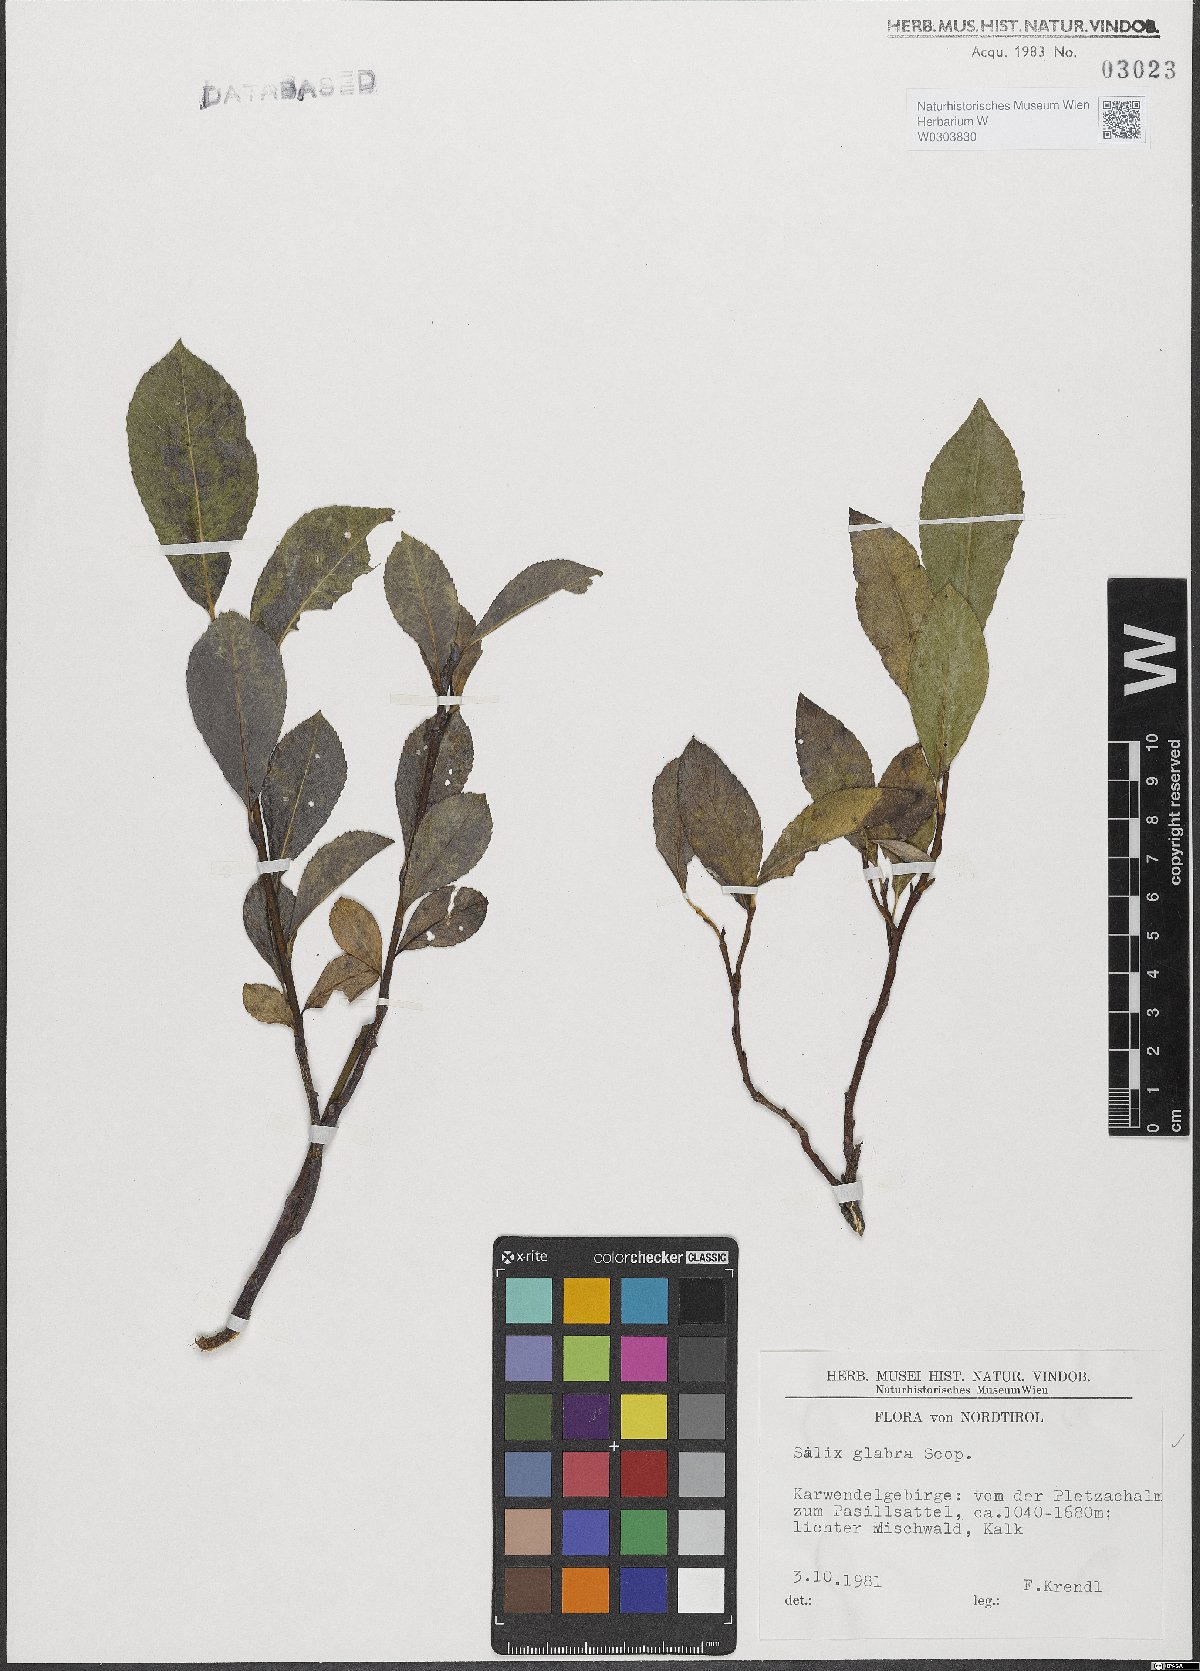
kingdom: Plantae
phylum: Tracheophyta
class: Magnoliopsida
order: Malpighiales
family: Salicaceae
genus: Salix
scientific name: Salix glabra
